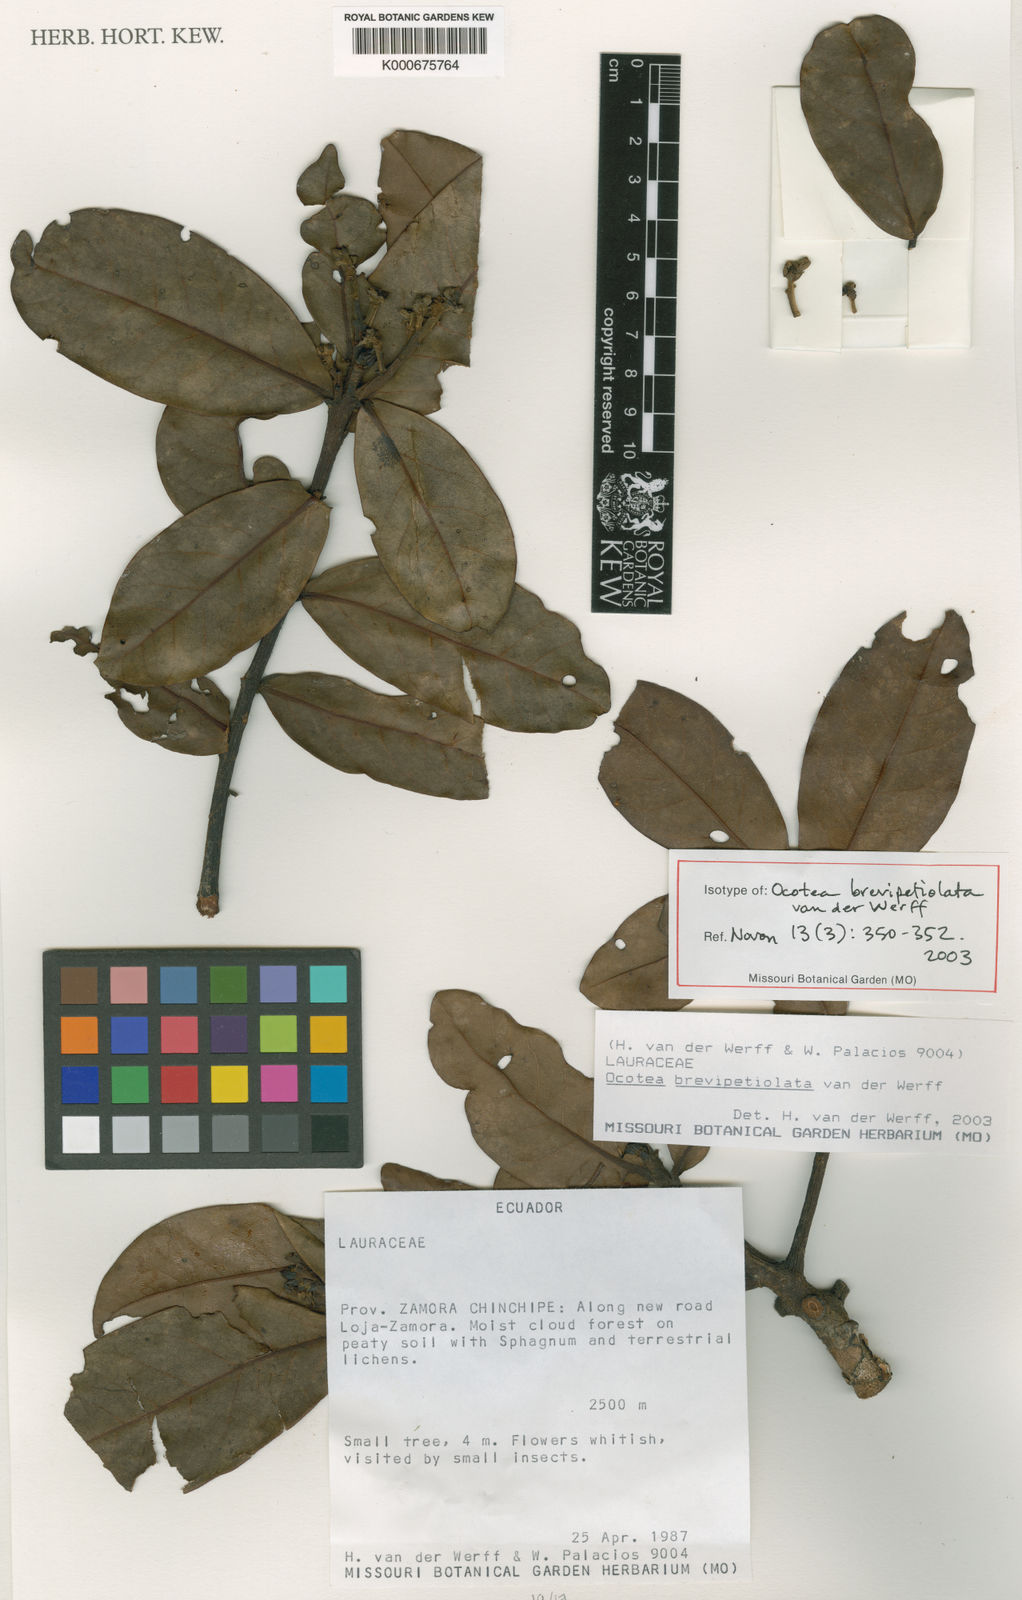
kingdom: Plantae
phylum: Tracheophyta
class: Magnoliopsida
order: Laurales
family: Lauraceae
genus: Ocotea
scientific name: Ocotea brevipetiolata
